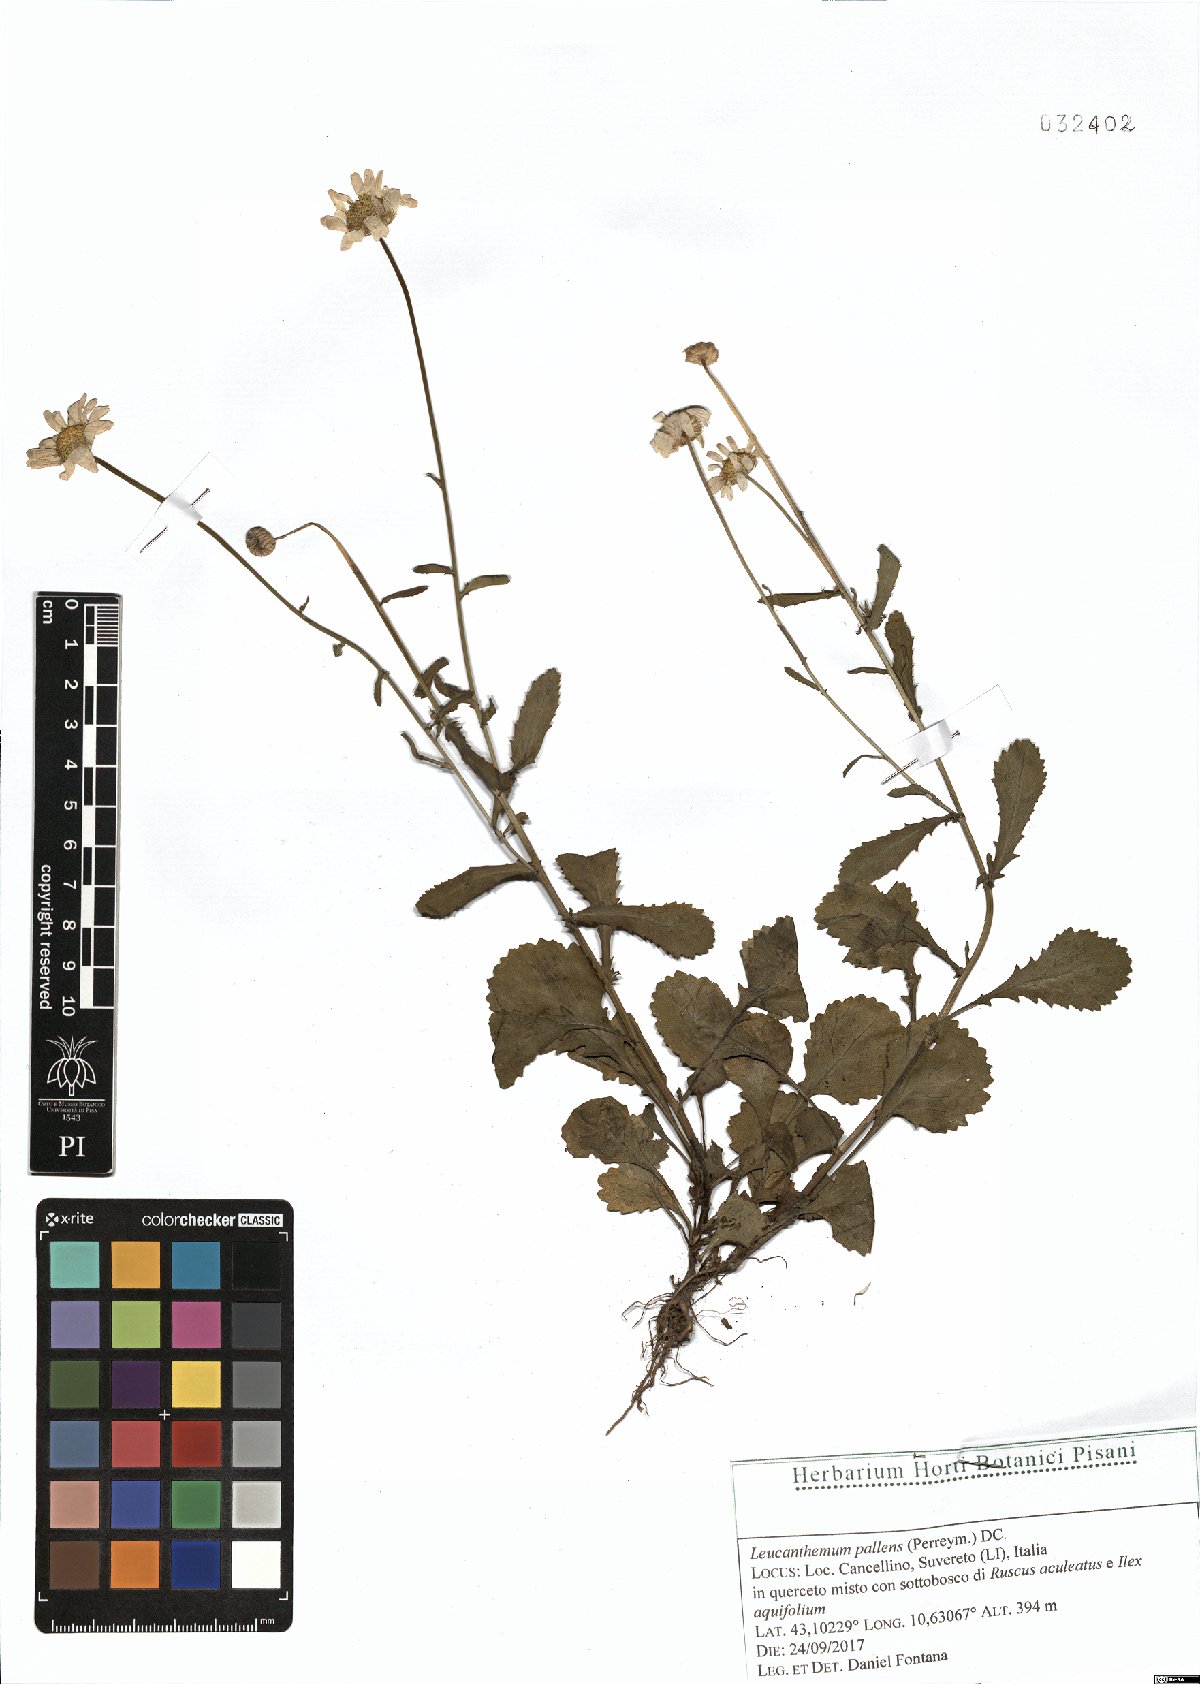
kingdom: Plantae
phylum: Tracheophyta
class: Magnoliopsida
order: Asterales
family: Asteraceae
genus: Leucanthemum
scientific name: Leucanthemum pallens
